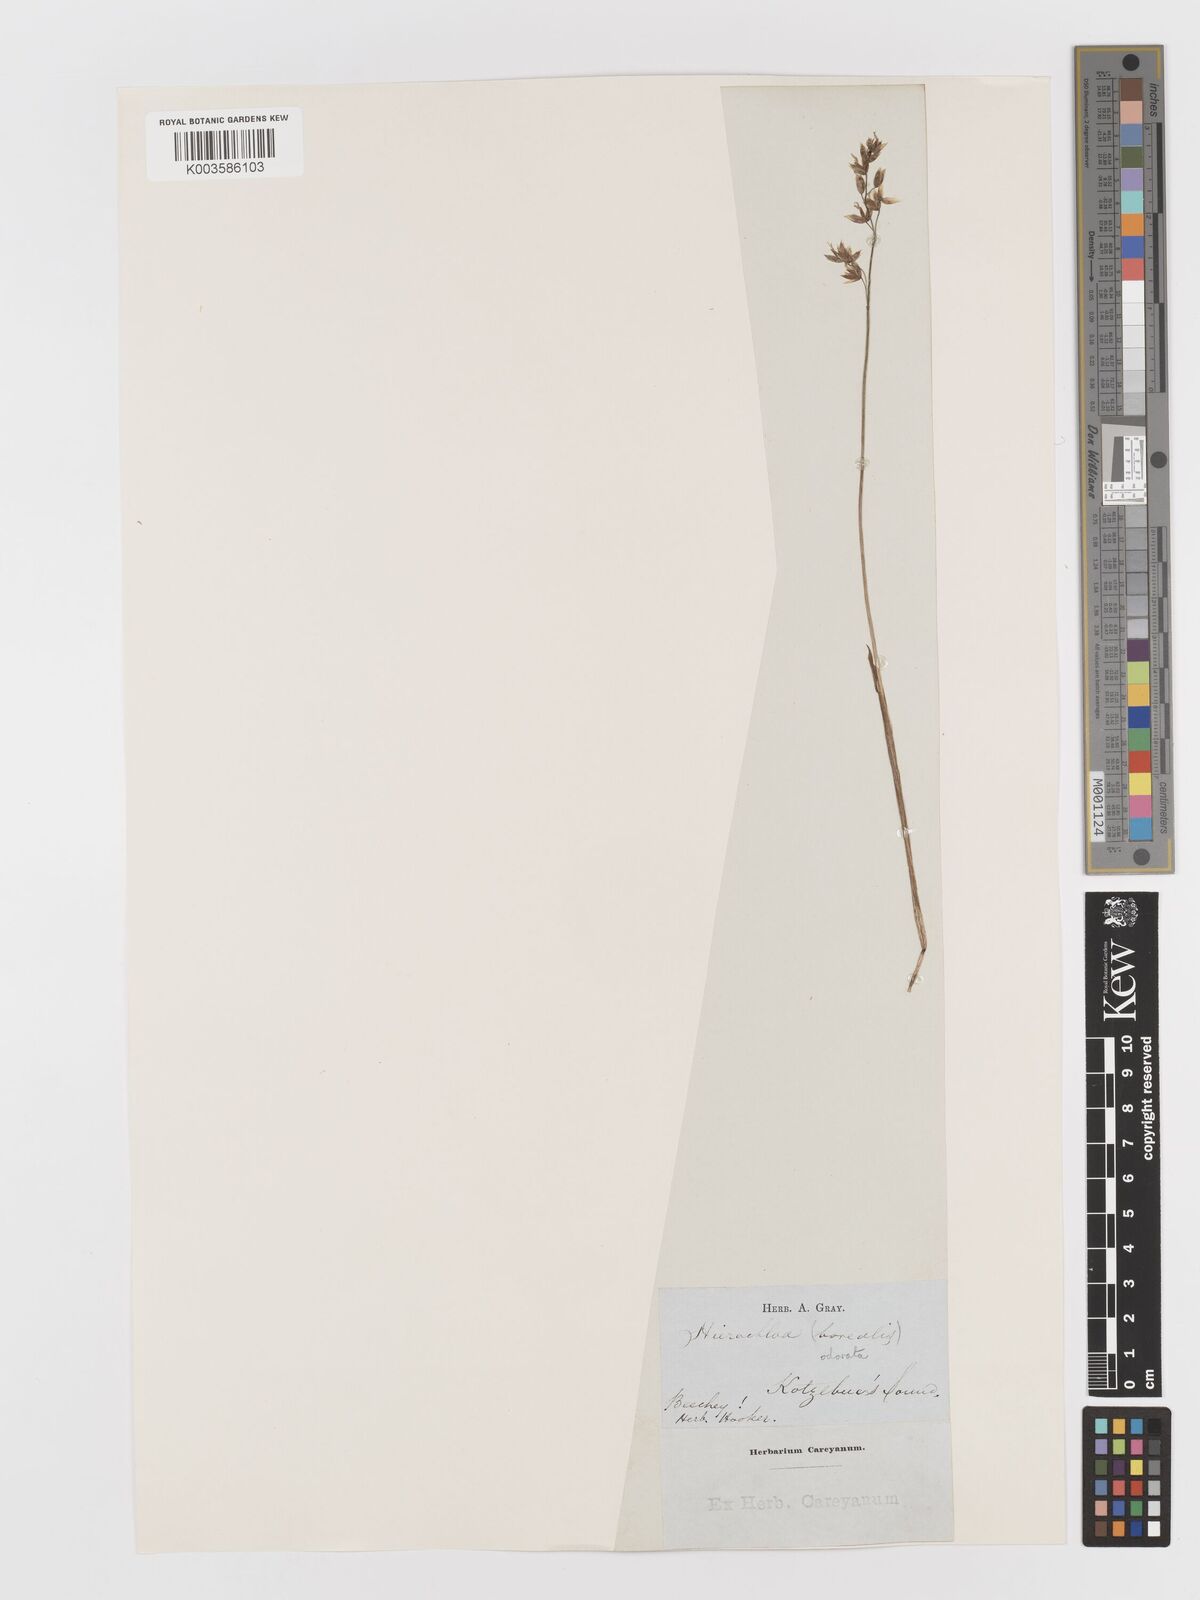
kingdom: Plantae
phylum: Tracheophyta
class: Liliopsida
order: Poales
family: Poaceae
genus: Anthoxanthum
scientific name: Anthoxanthum nitens
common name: Holy grass
